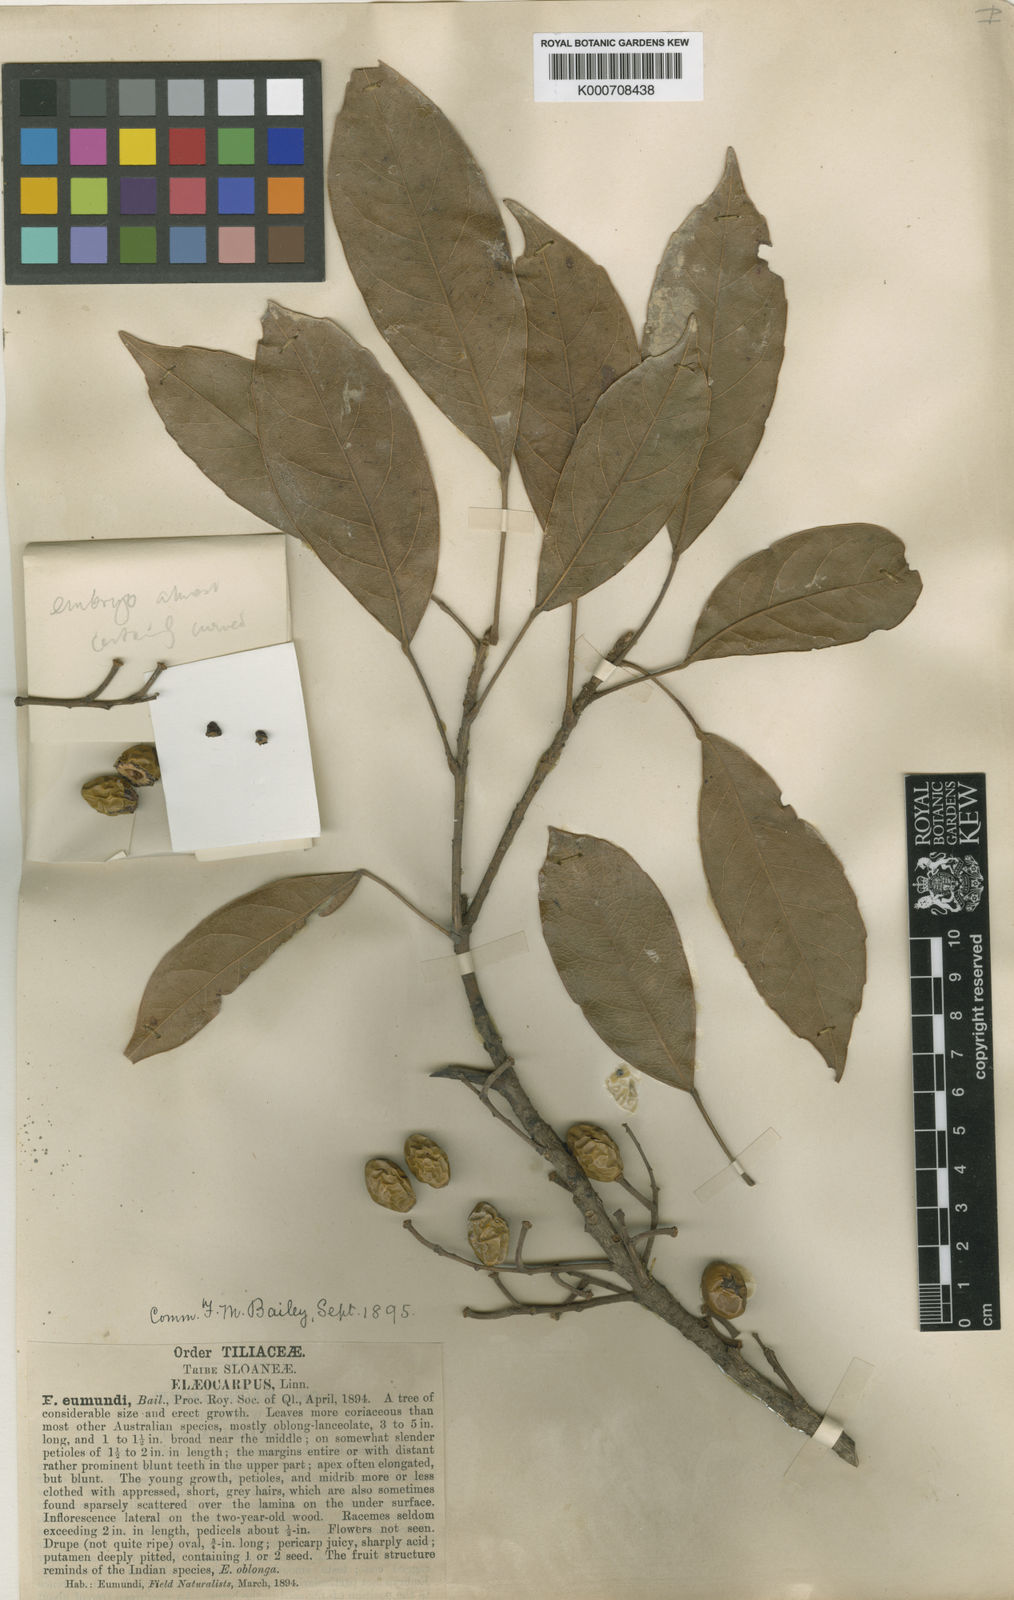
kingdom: Plantae
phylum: Tracheophyta
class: Magnoliopsida
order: Oxalidales
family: Elaeocarpaceae
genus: Elaeocarpus
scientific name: Elaeocarpus eumundi
